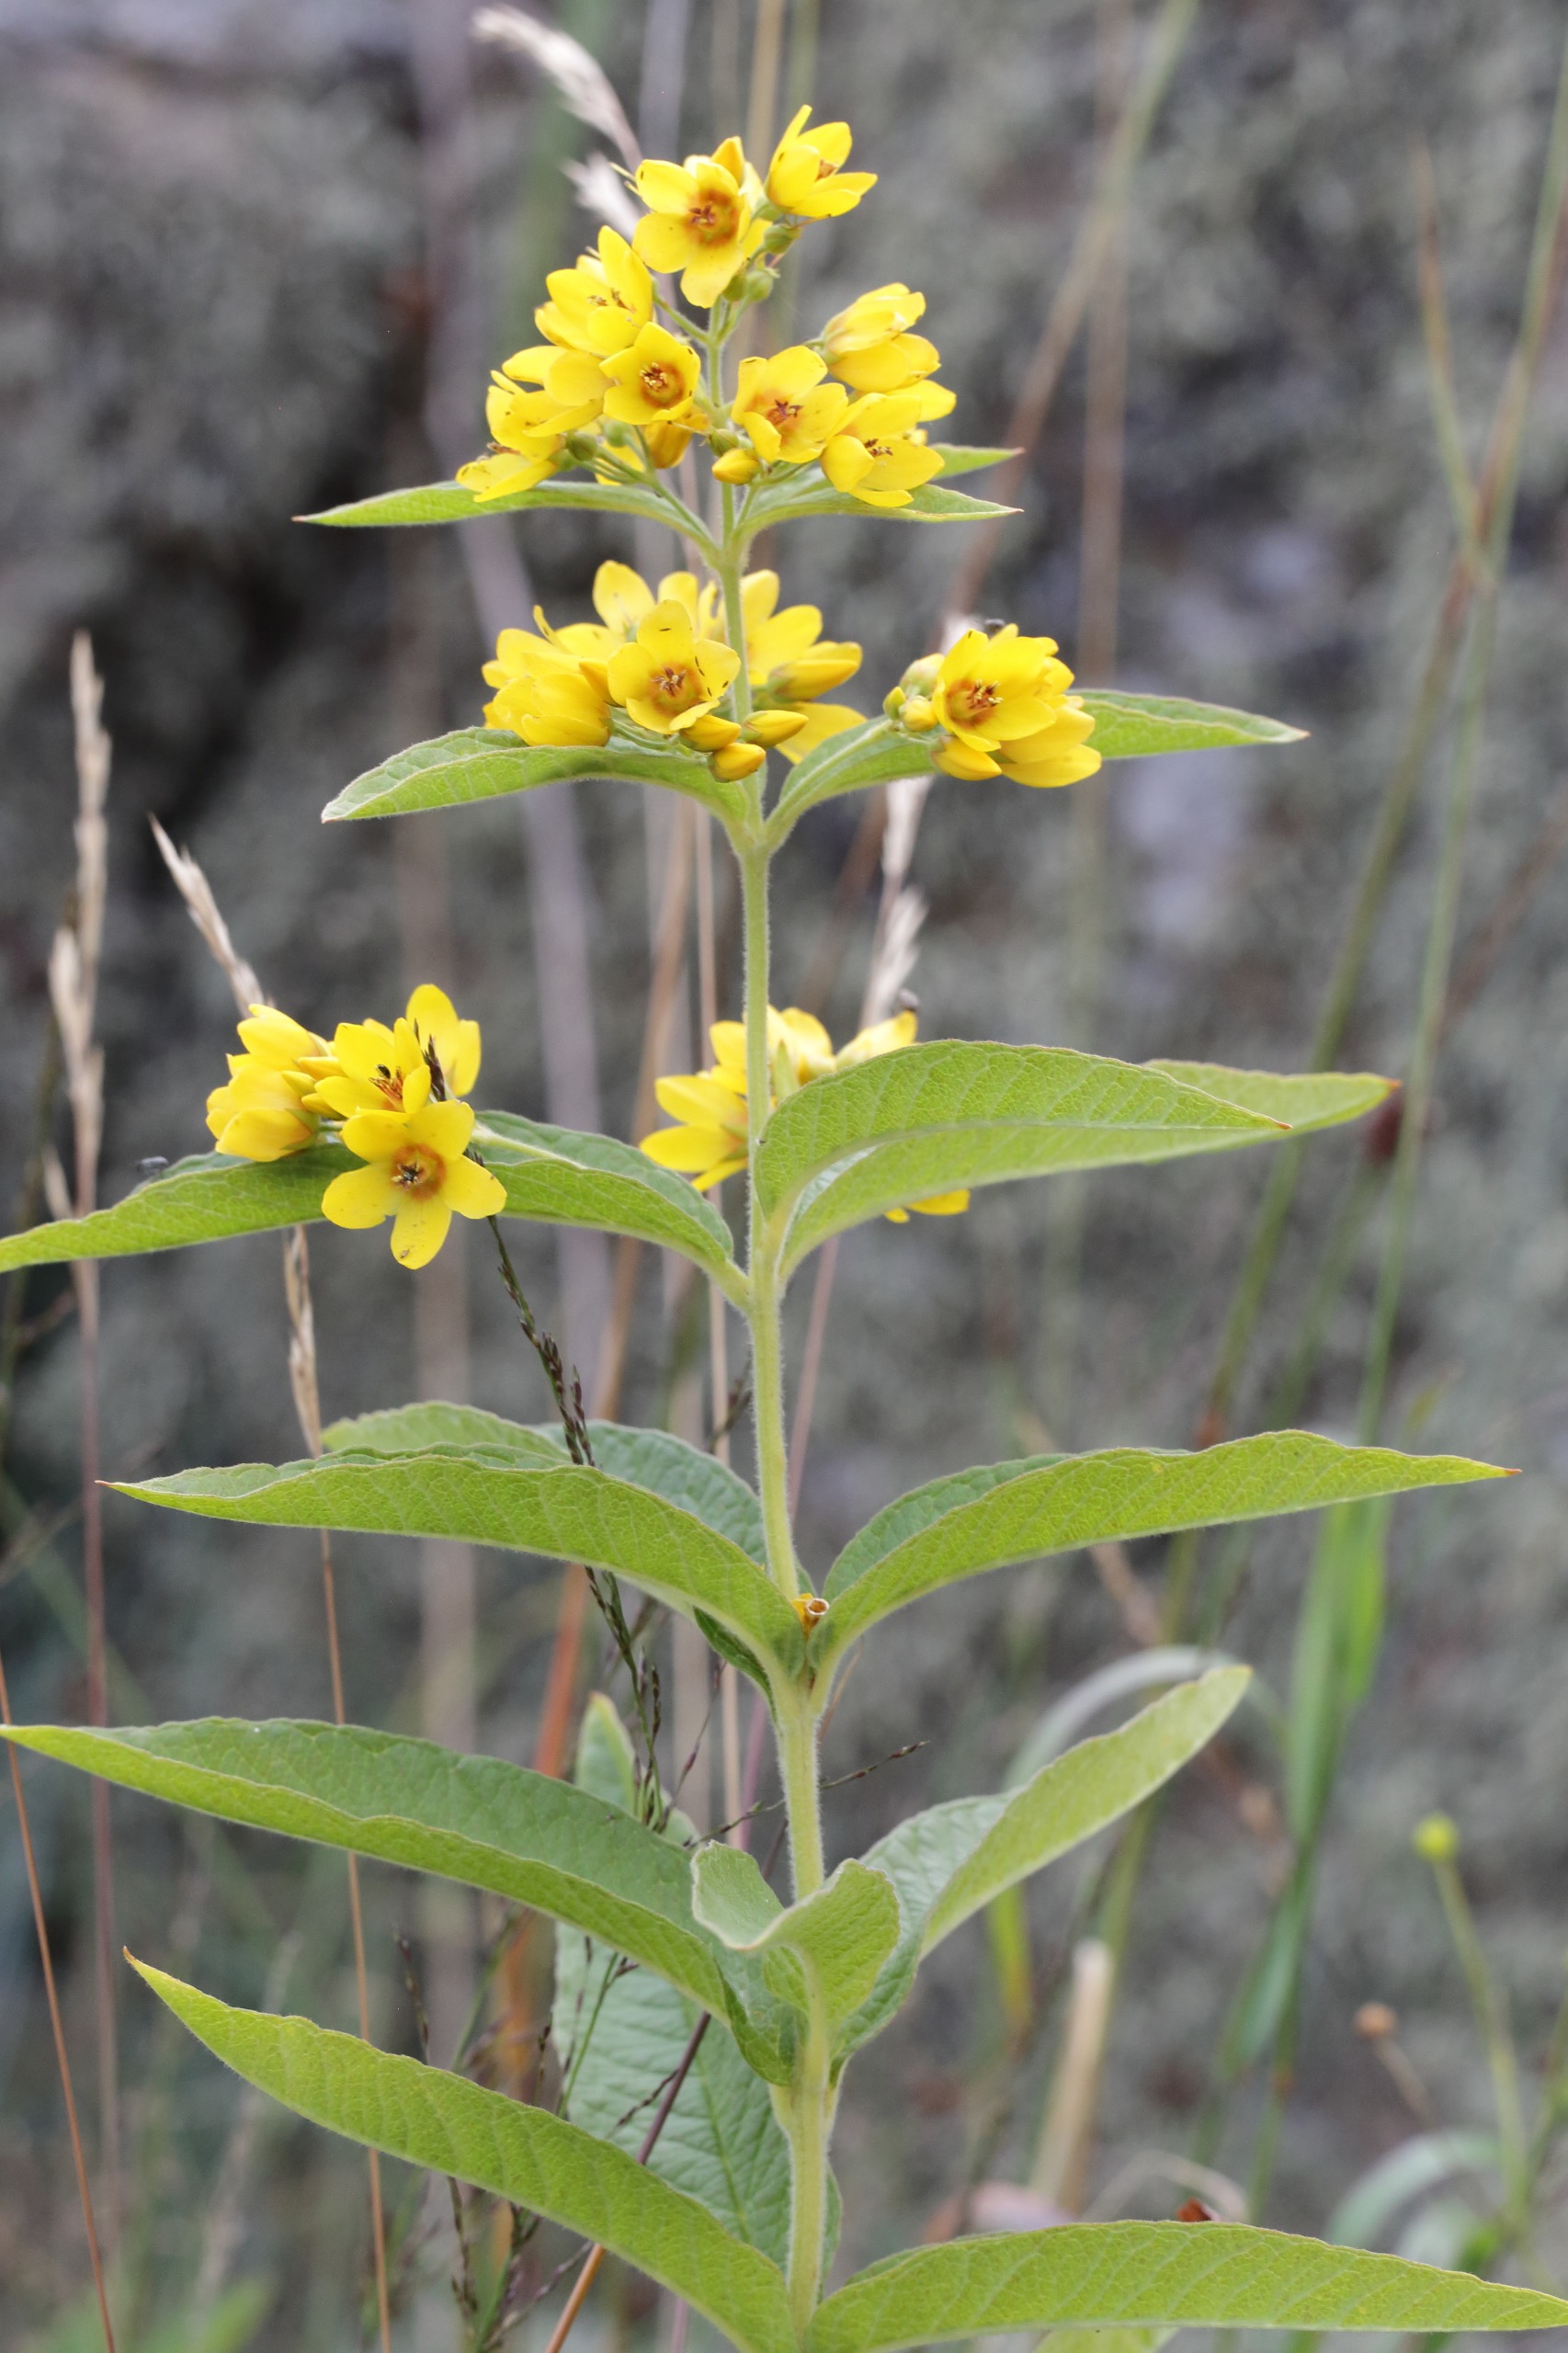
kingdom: Plantae
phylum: Tracheophyta
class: Magnoliopsida
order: Ericales
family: Primulaceae
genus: Lysimachia
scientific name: Lysimachia vulgaris
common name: Almindelig fredløs
